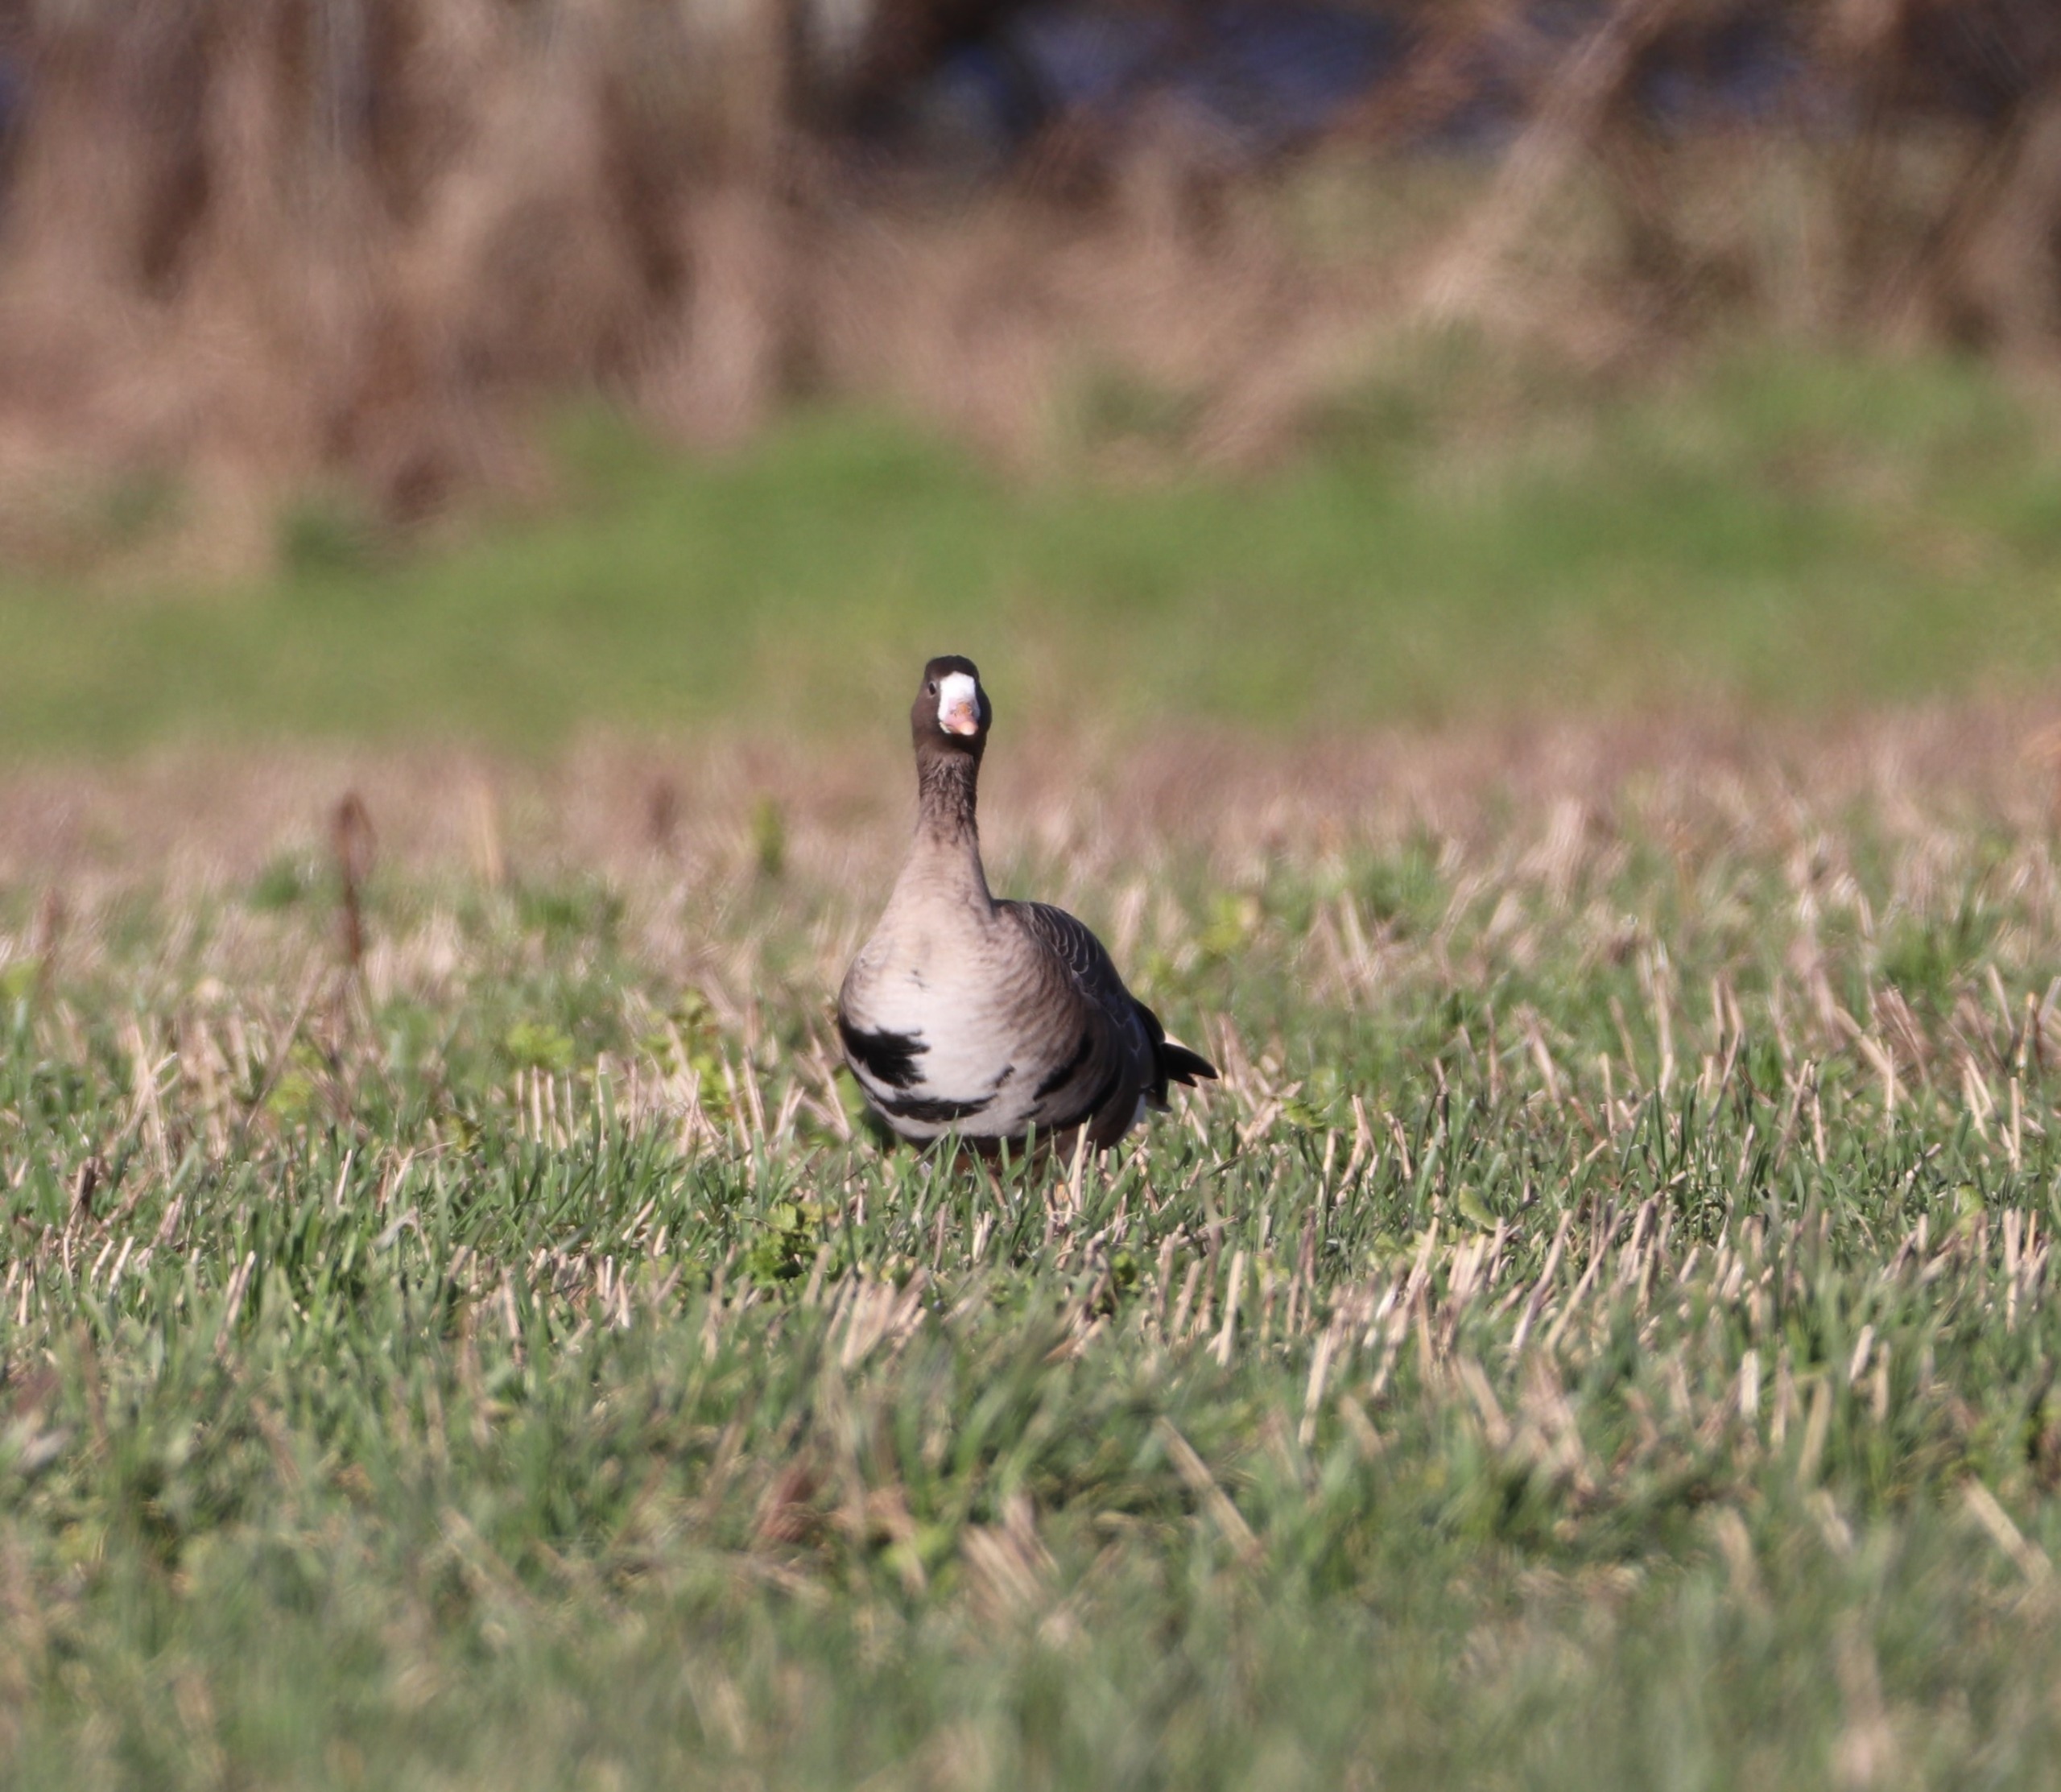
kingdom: Animalia
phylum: Chordata
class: Aves
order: Anseriformes
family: Anatidae
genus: Anser
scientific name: Anser albifrons
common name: Blisgås
